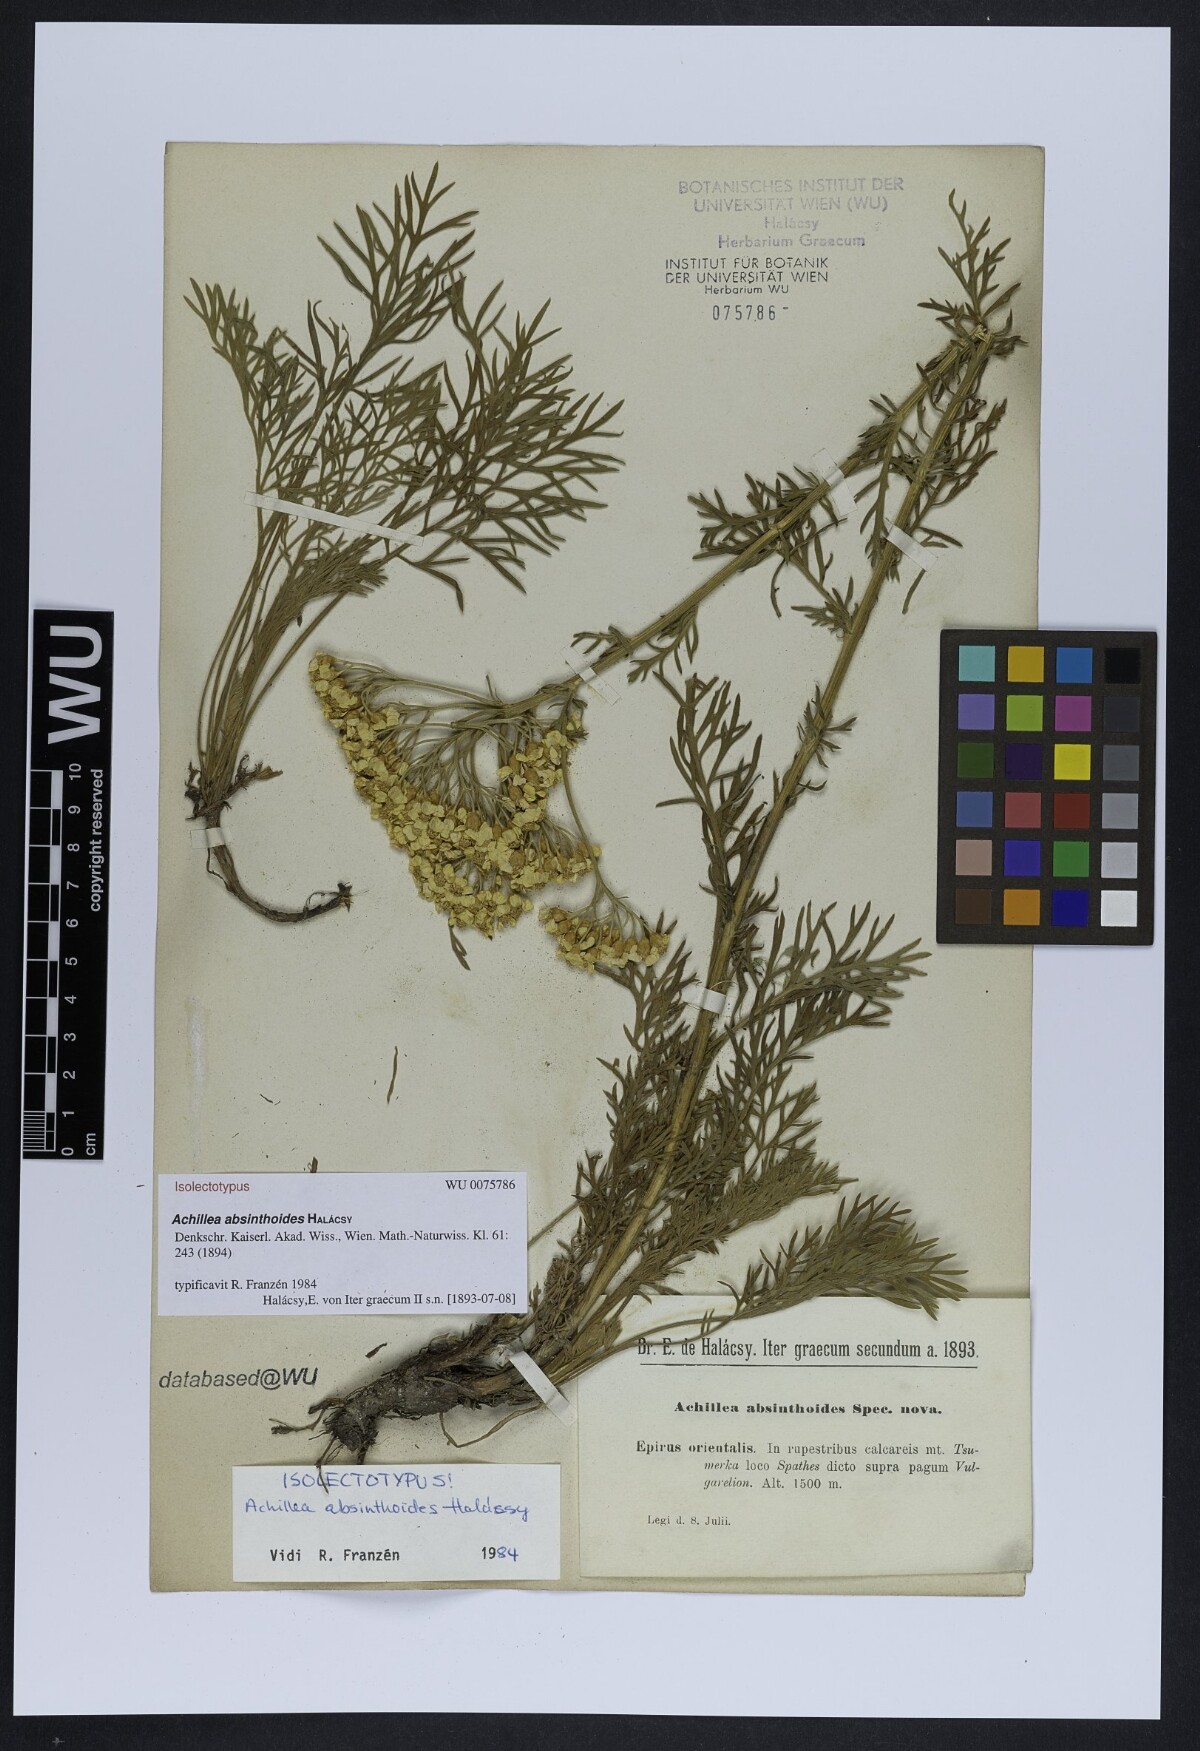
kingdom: Plantae
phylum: Tracheophyta
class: Magnoliopsida
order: Asterales
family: Asteraceae
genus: Achillea
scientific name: Achillea absinthoides
